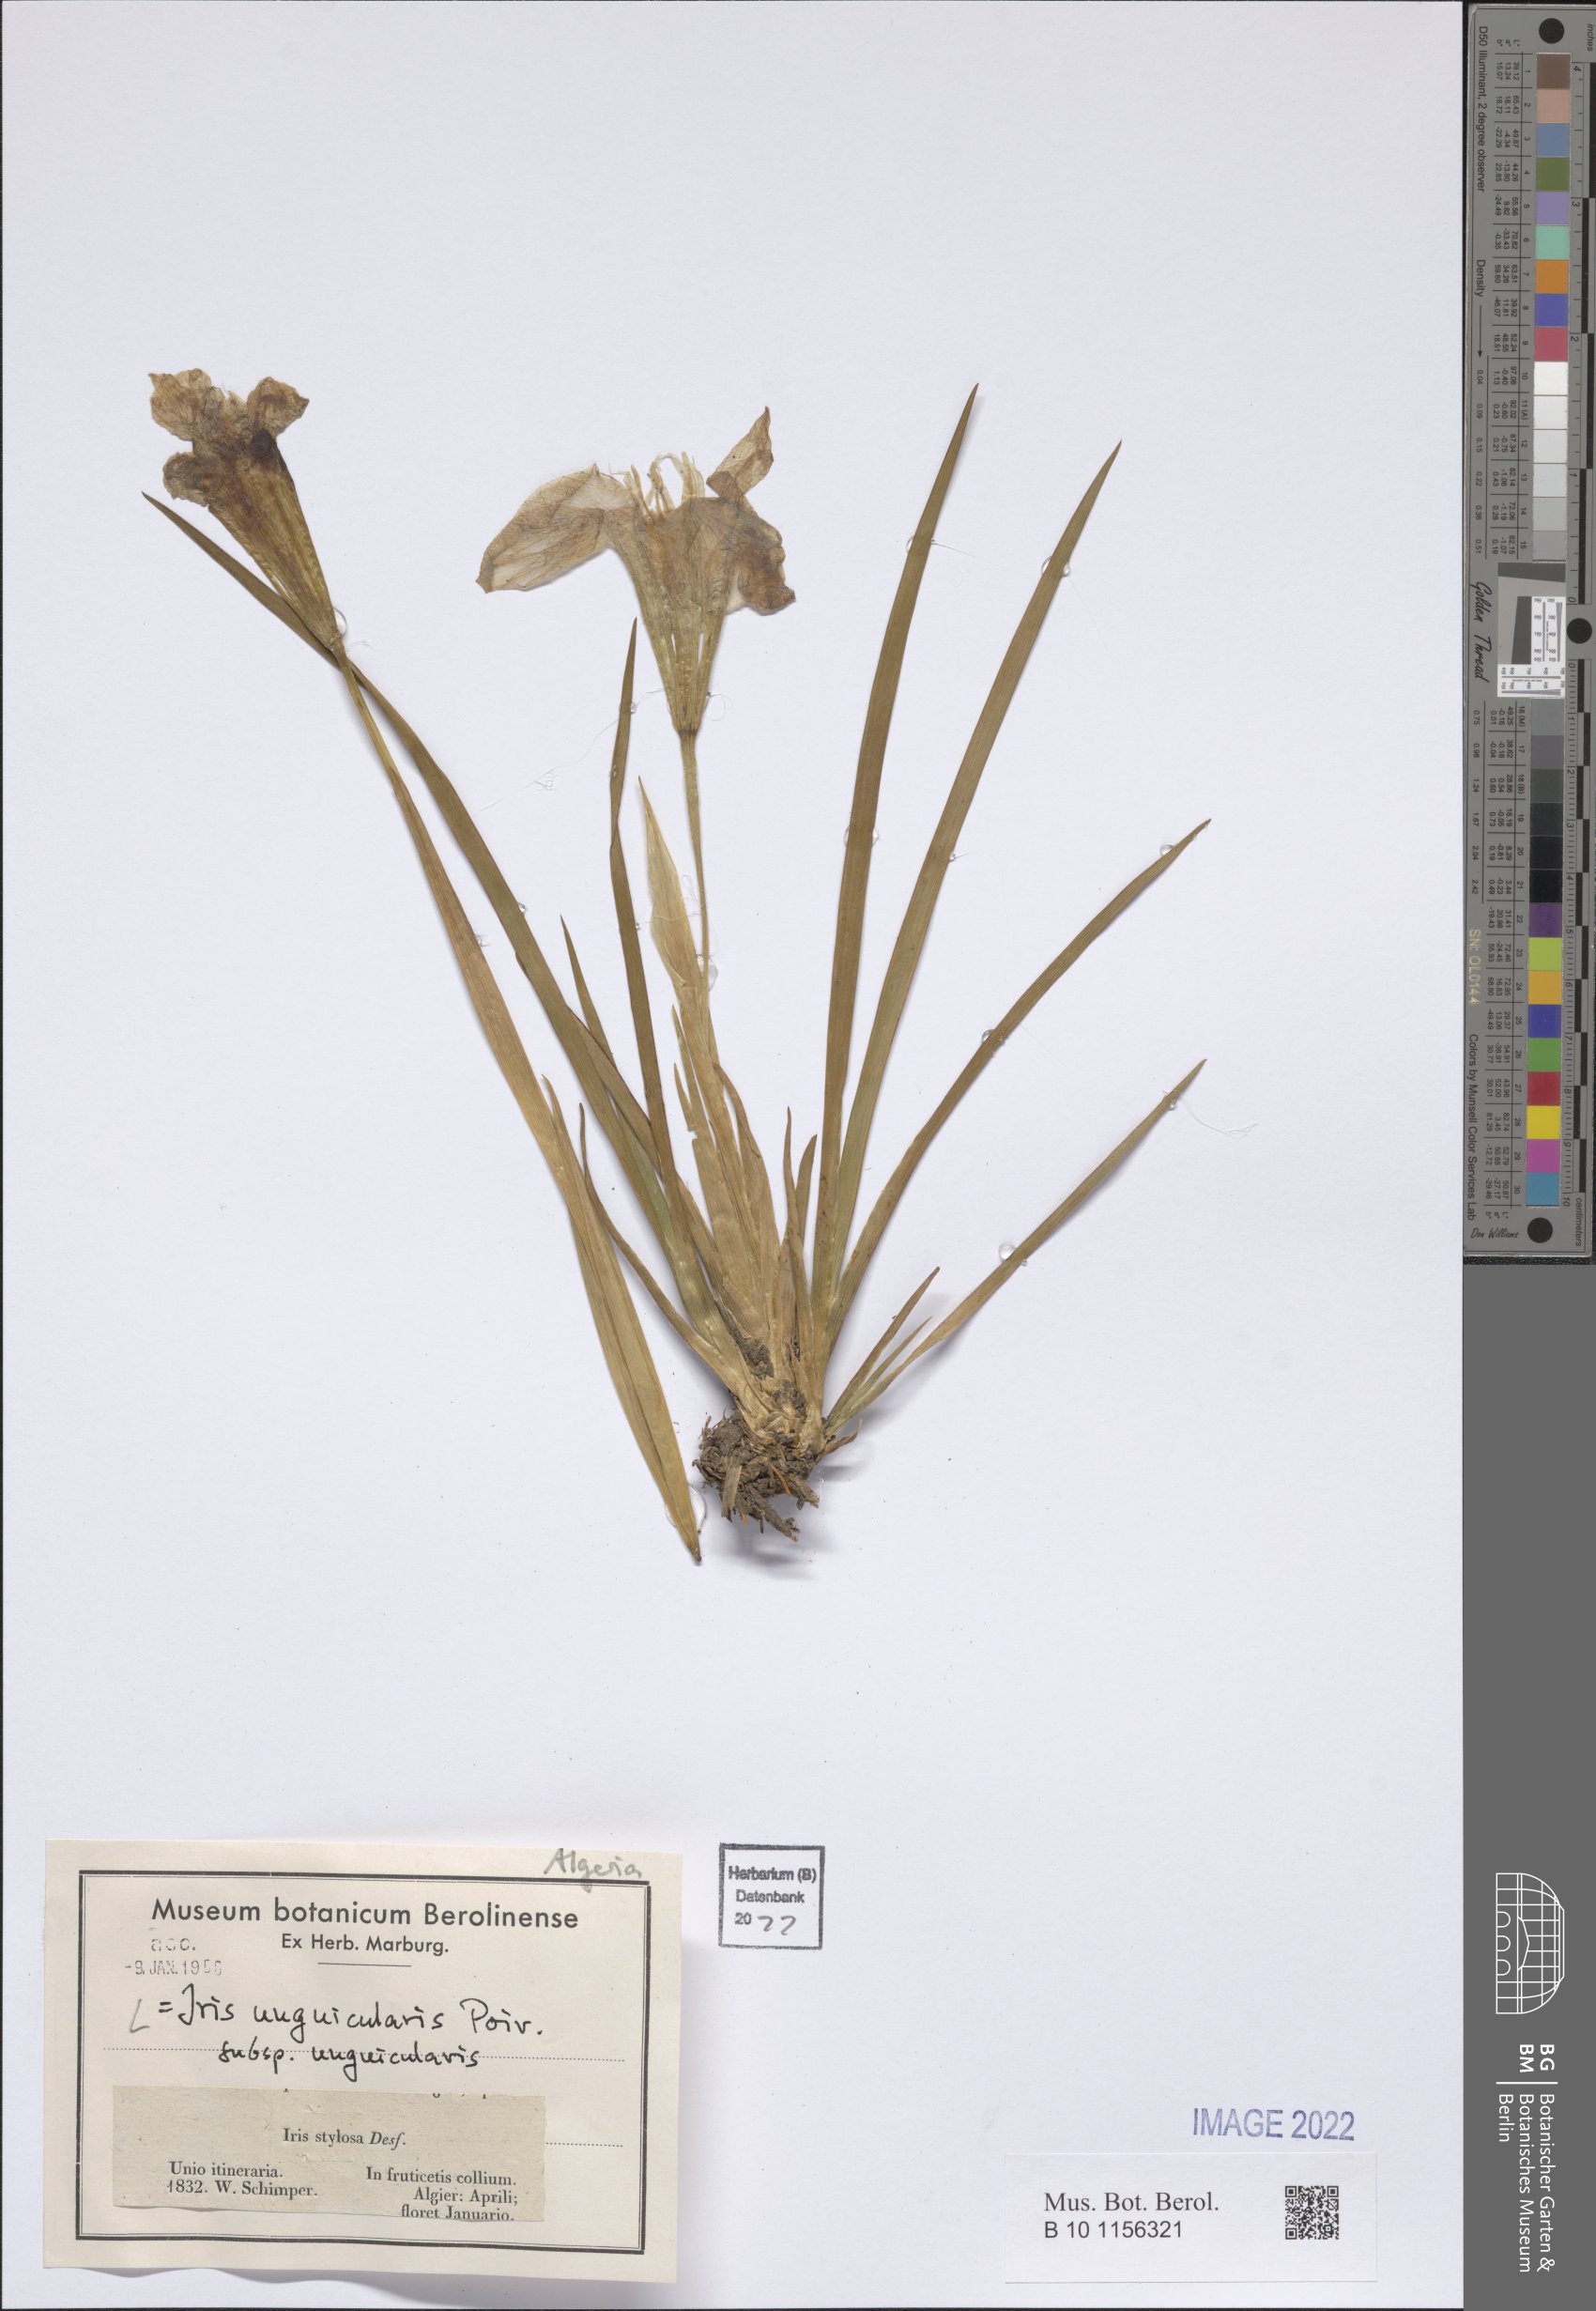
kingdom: Plantae
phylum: Tracheophyta
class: Liliopsida
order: Asparagales
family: Iridaceae
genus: Iris
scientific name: Iris unguicularis
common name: Algerian iris
